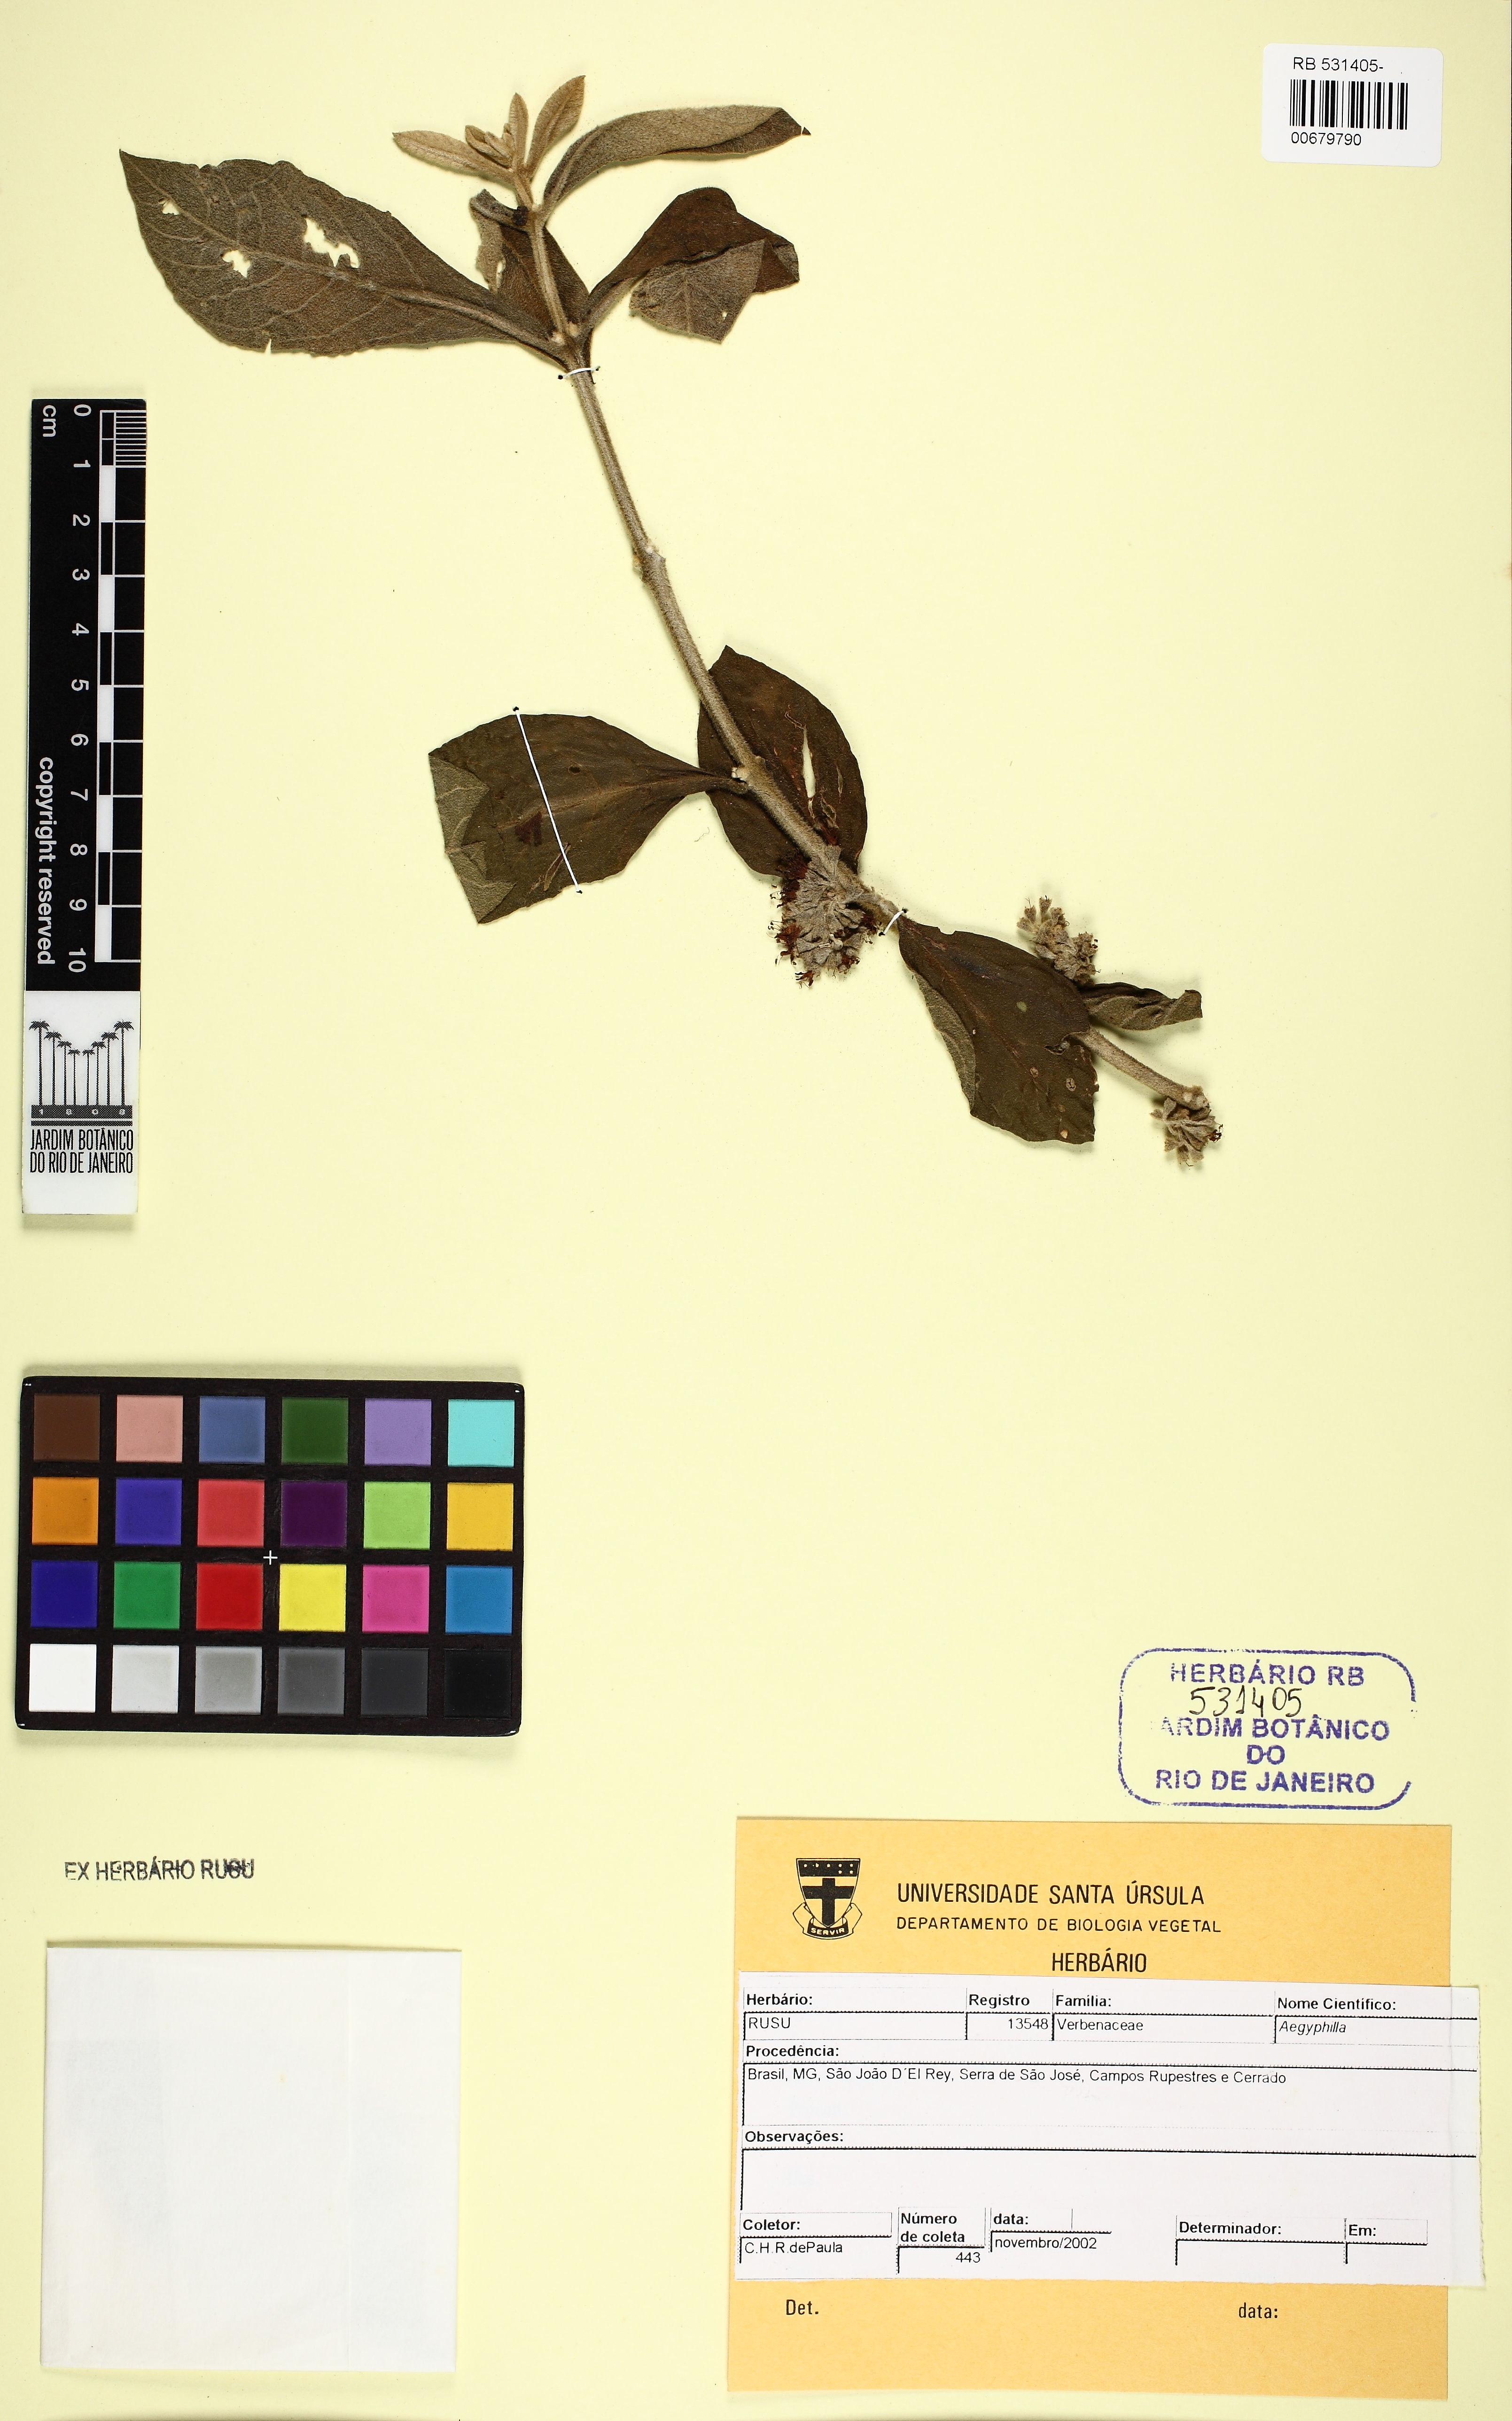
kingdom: Plantae
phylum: Tracheophyta
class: Magnoliopsida
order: Lamiales
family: Lamiaceae
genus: Aegiphila
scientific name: Aegiphila
